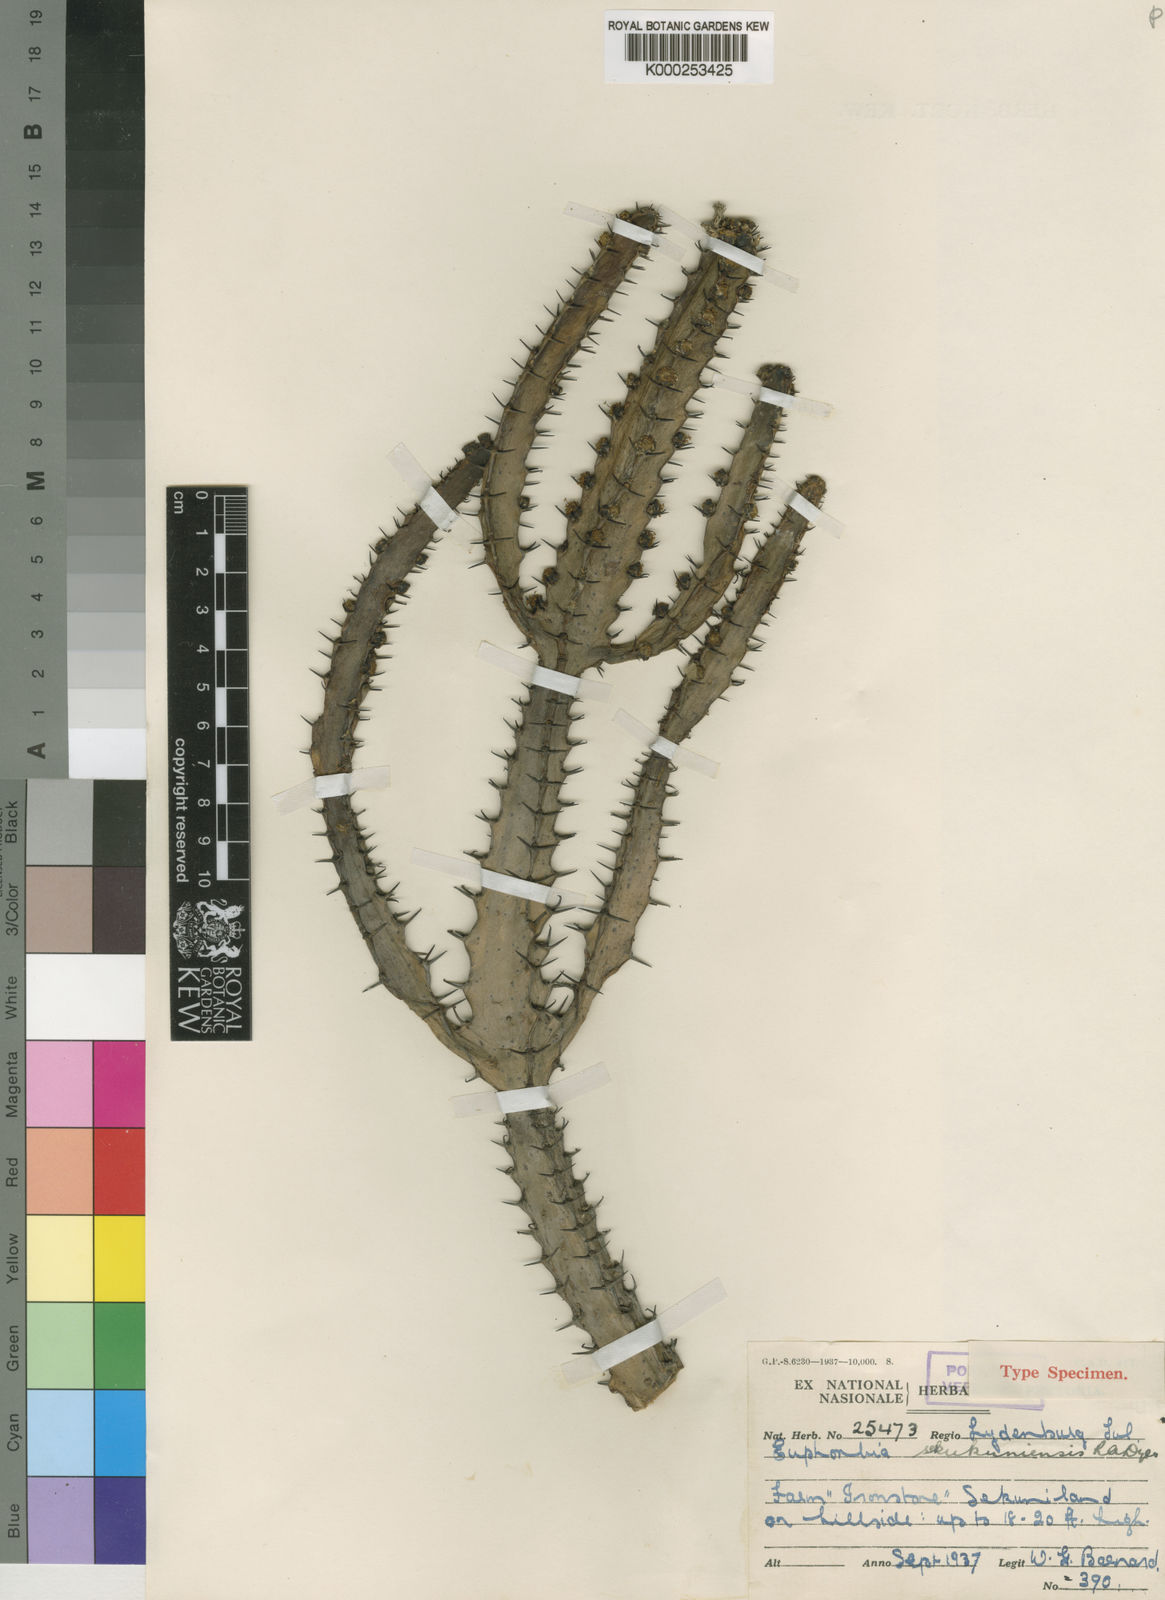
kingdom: Plantae
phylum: Tracheophyta
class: Magnoliopsida
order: Malpighiales
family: Euphorbiaceae
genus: Euphorbia
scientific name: Euphorbia sekukuniensis
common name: Sekhukhune candelabra tree
